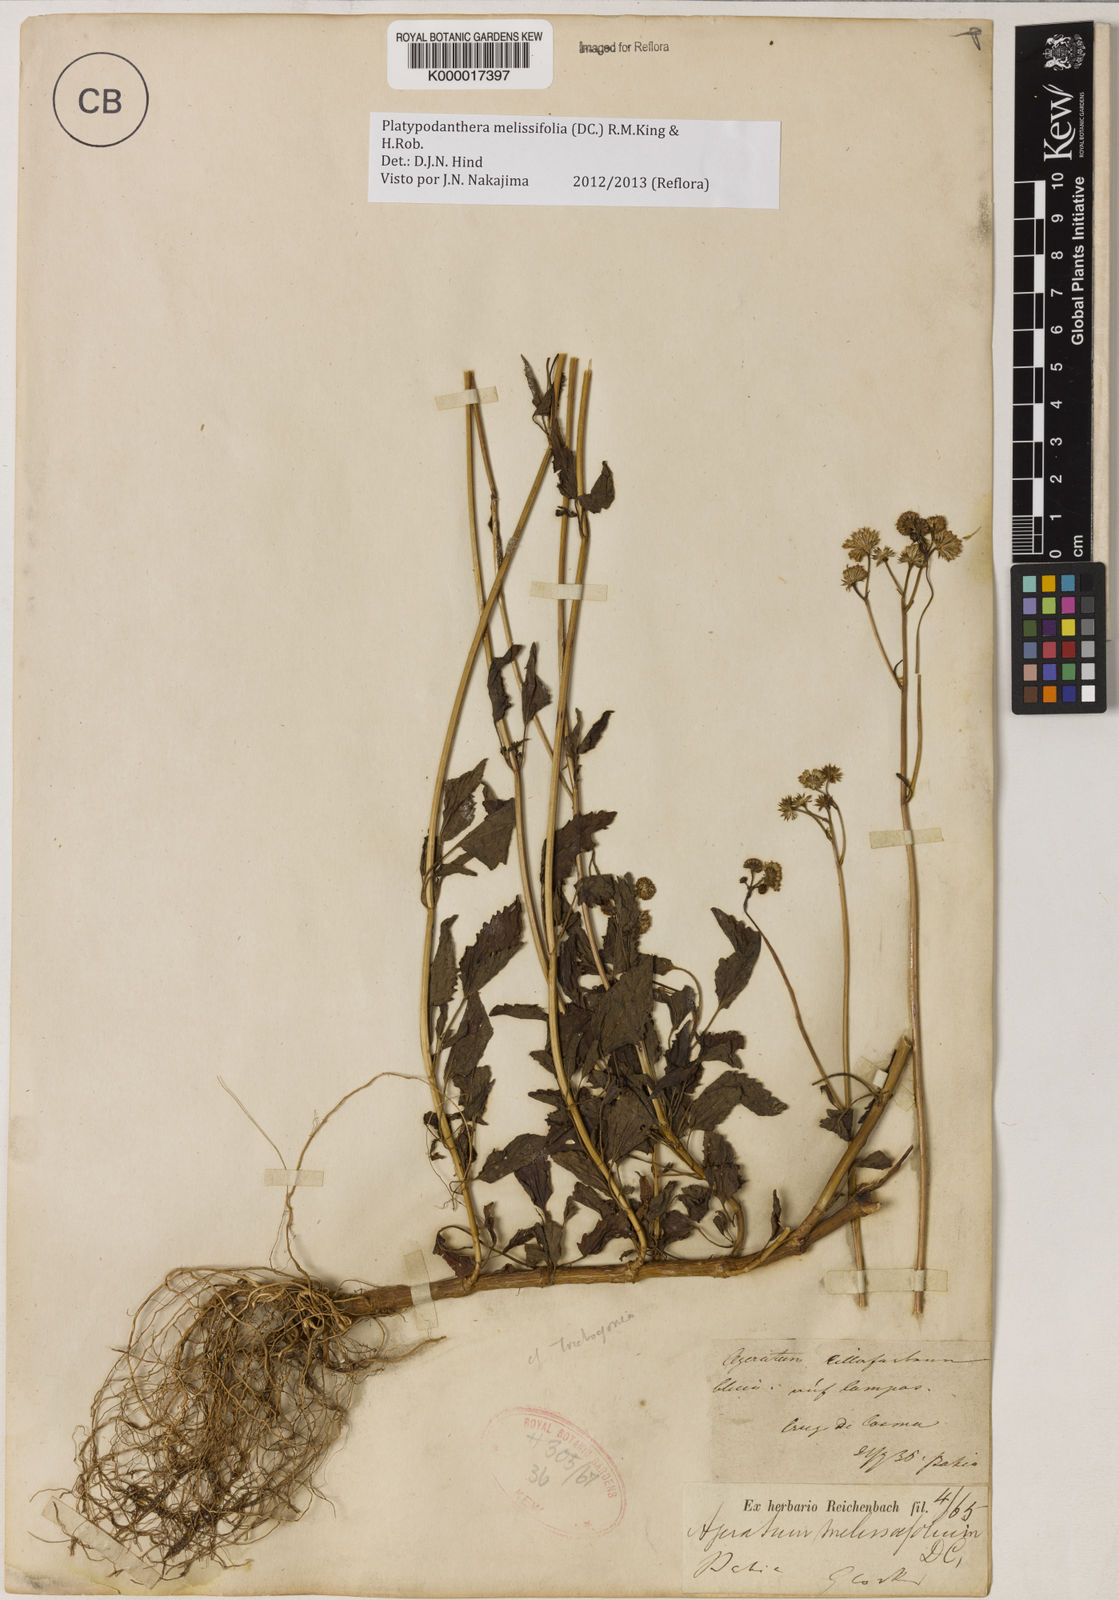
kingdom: Plantae
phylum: Tracheophyta
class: Magnoliopsida
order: Asterales
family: Asteraceae
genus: Platypodanthera
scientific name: Platypodanthera melissifolia
